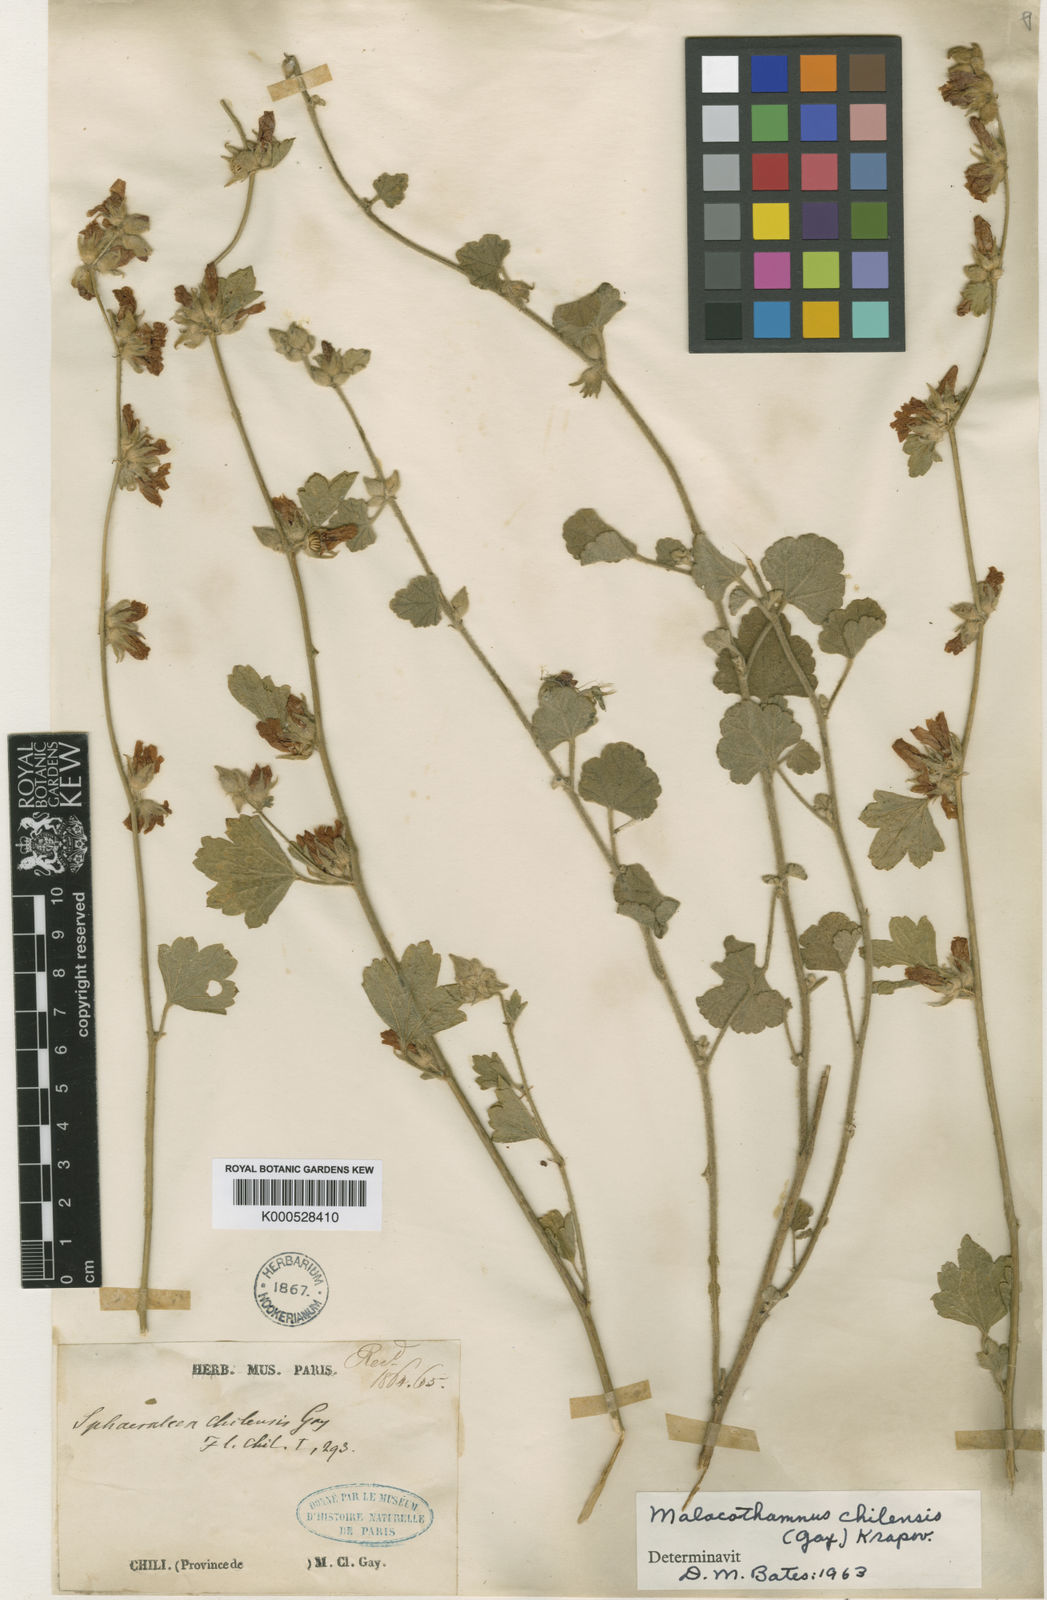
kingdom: Plantae
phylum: Tracheophyta
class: Magnoliopsida
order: Malvales
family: Malvaceae
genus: Andeimalva
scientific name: Andeimalva chilensis
